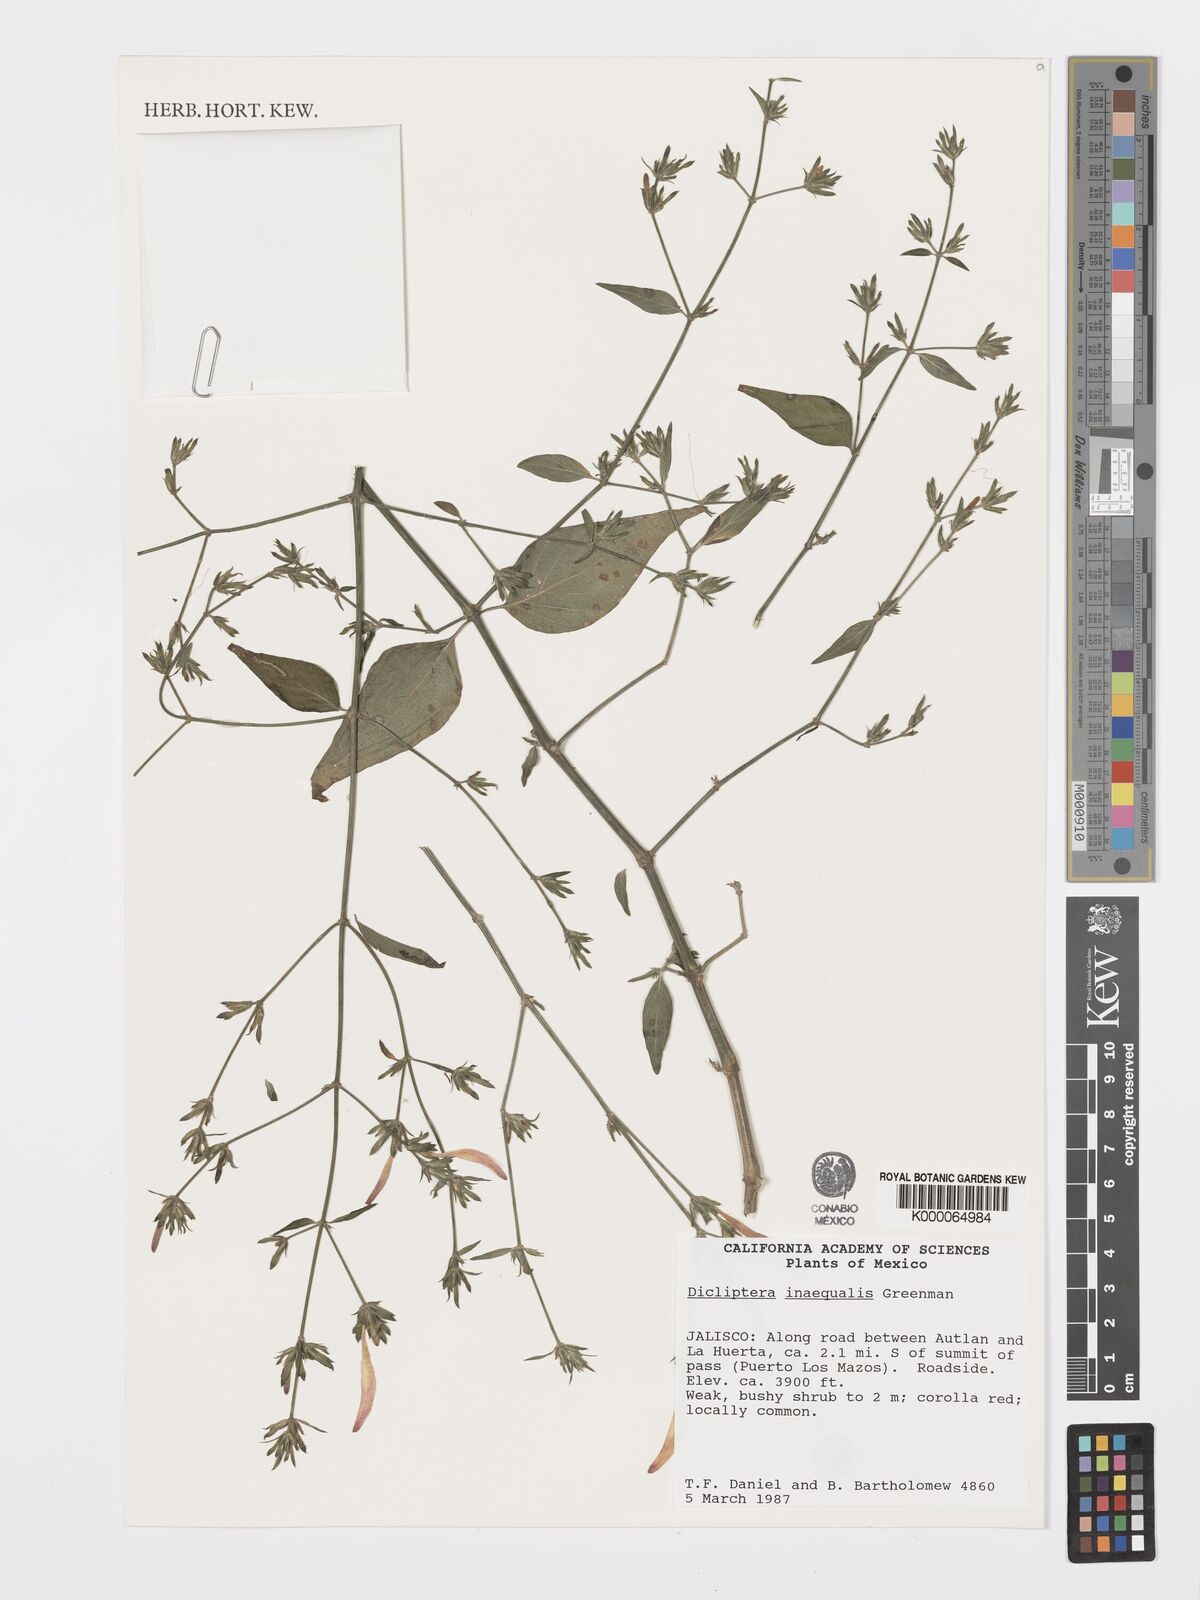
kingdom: Plantae
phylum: Tracheophyta
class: Magnoliopsida
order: Lamiales
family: Acanthaceae
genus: Dicliptera
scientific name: Dicliptera inaequalis
